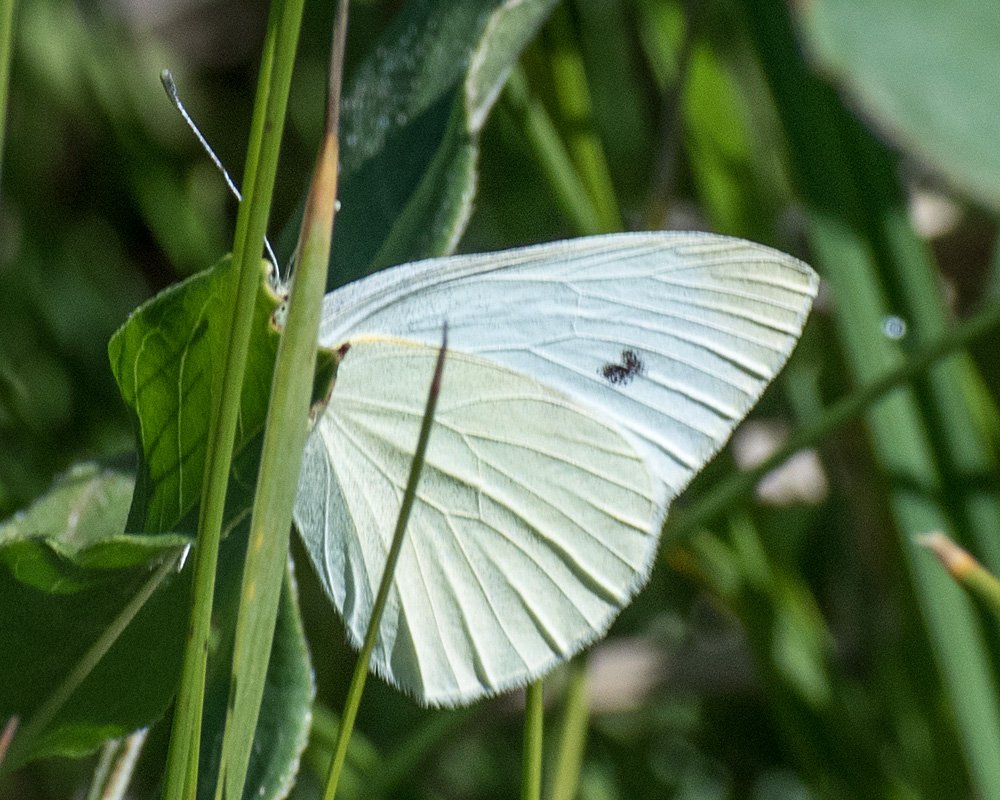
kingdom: Animalia
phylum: Arthropoda
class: Insecta
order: Lepidoptera
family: Pieridae
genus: Pieris
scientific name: Pieris rapae
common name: Cabbage White
